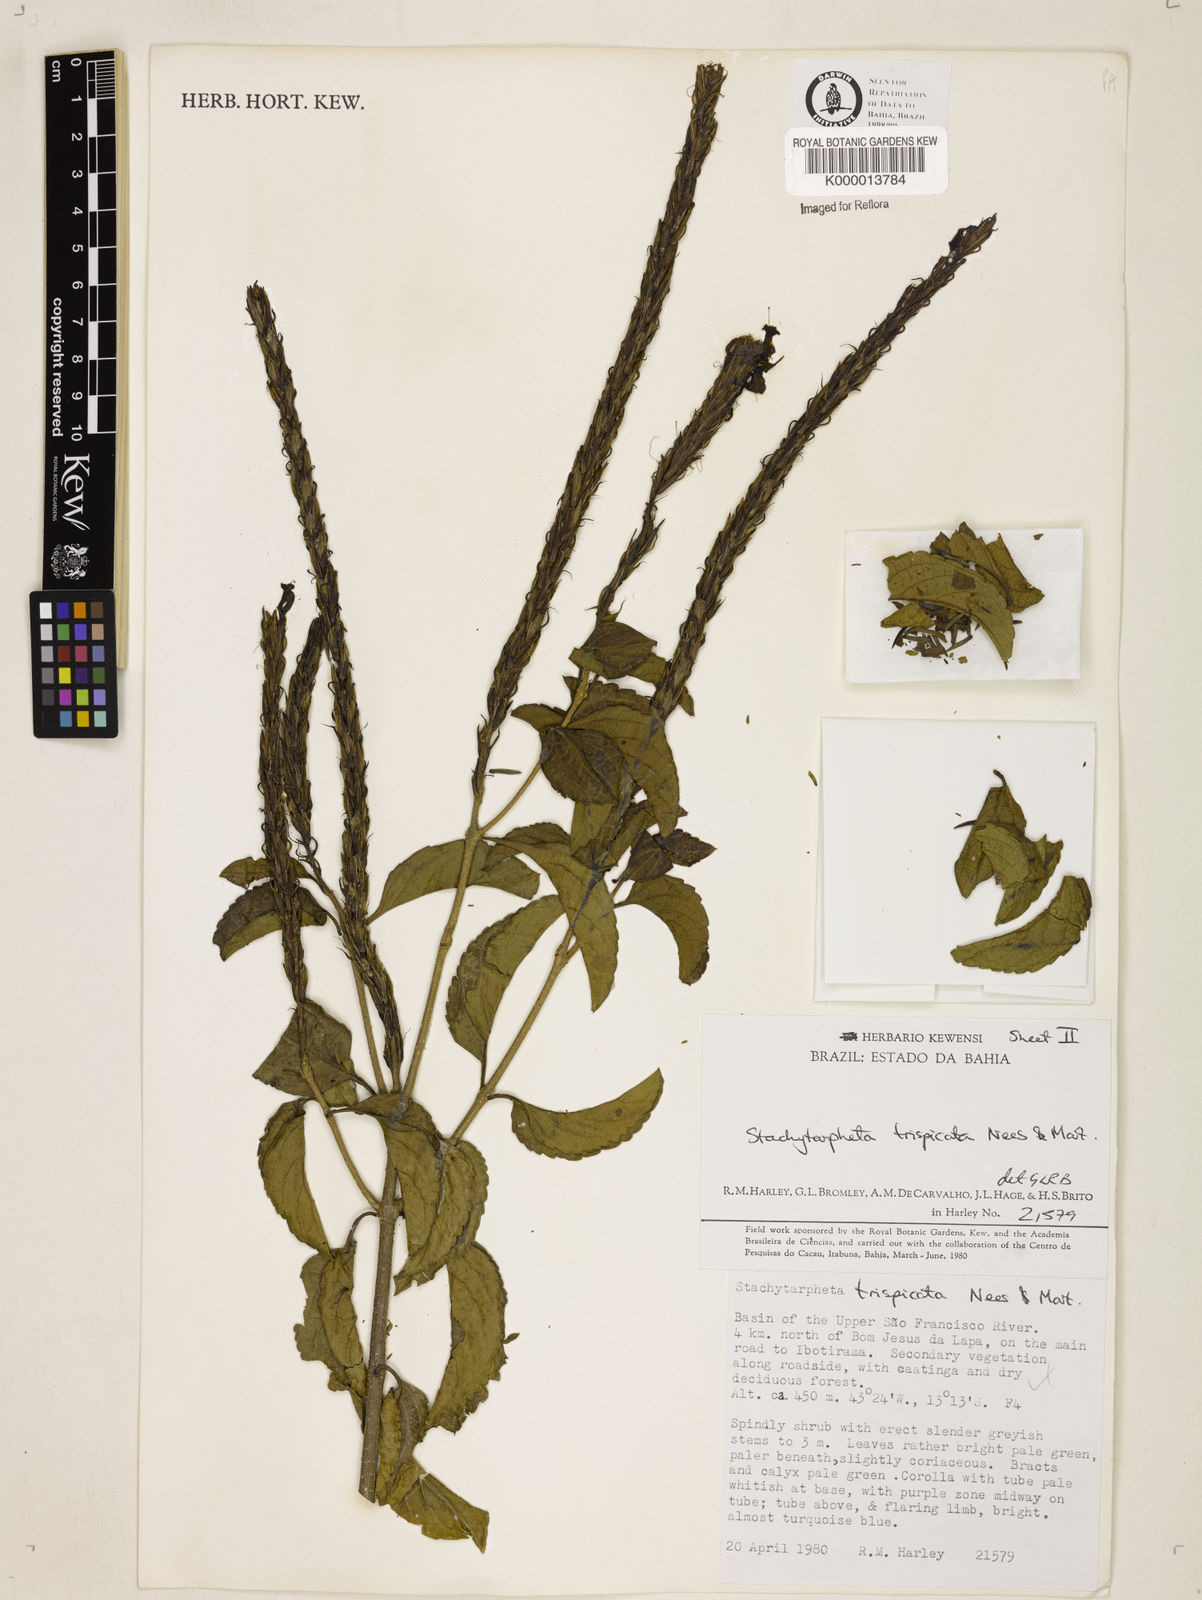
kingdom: Plantae
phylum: Tracheophyta
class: Magnoliopsida
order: Lamiales
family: Verbenaceae
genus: Stachytarpheta
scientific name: Stachytarpheta trispicata
